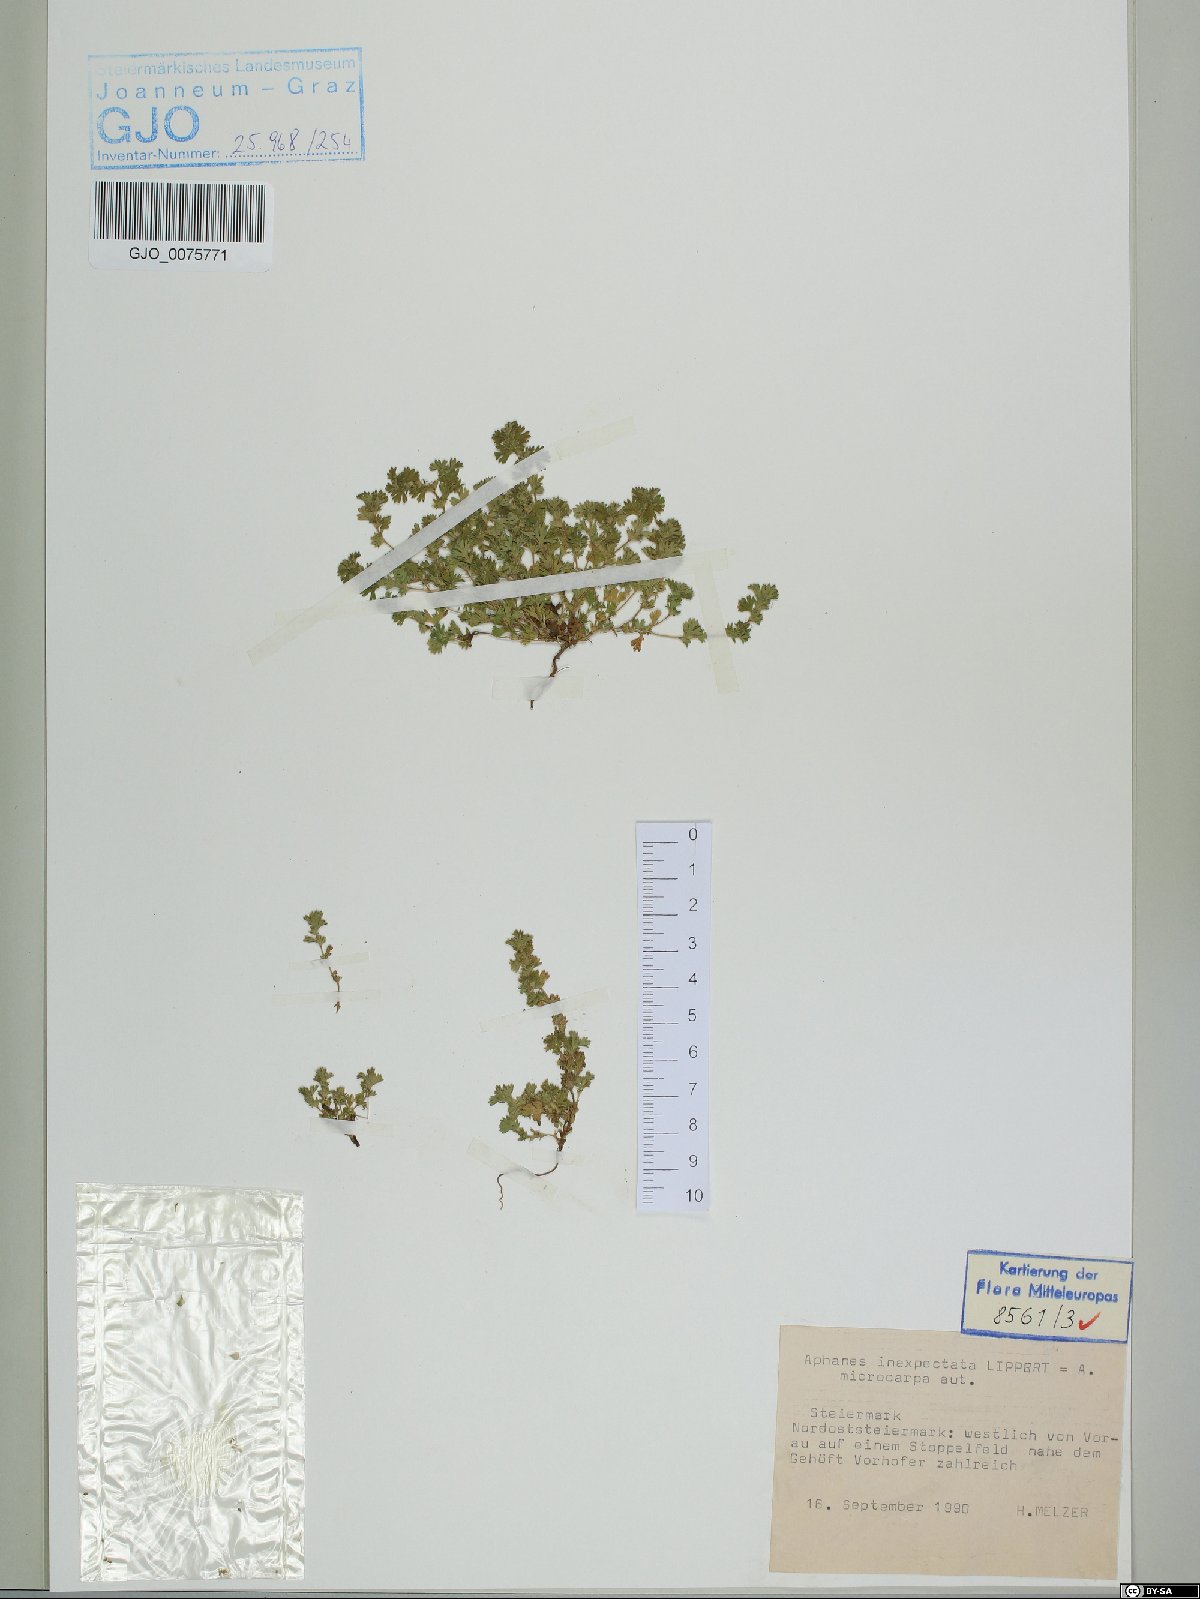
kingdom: Plantae
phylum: Tracheophyta
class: Magnoliopsida
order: Rosales
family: Rosaceae
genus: Aphanes
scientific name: Aphanes australis
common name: Slender parsley-piert
